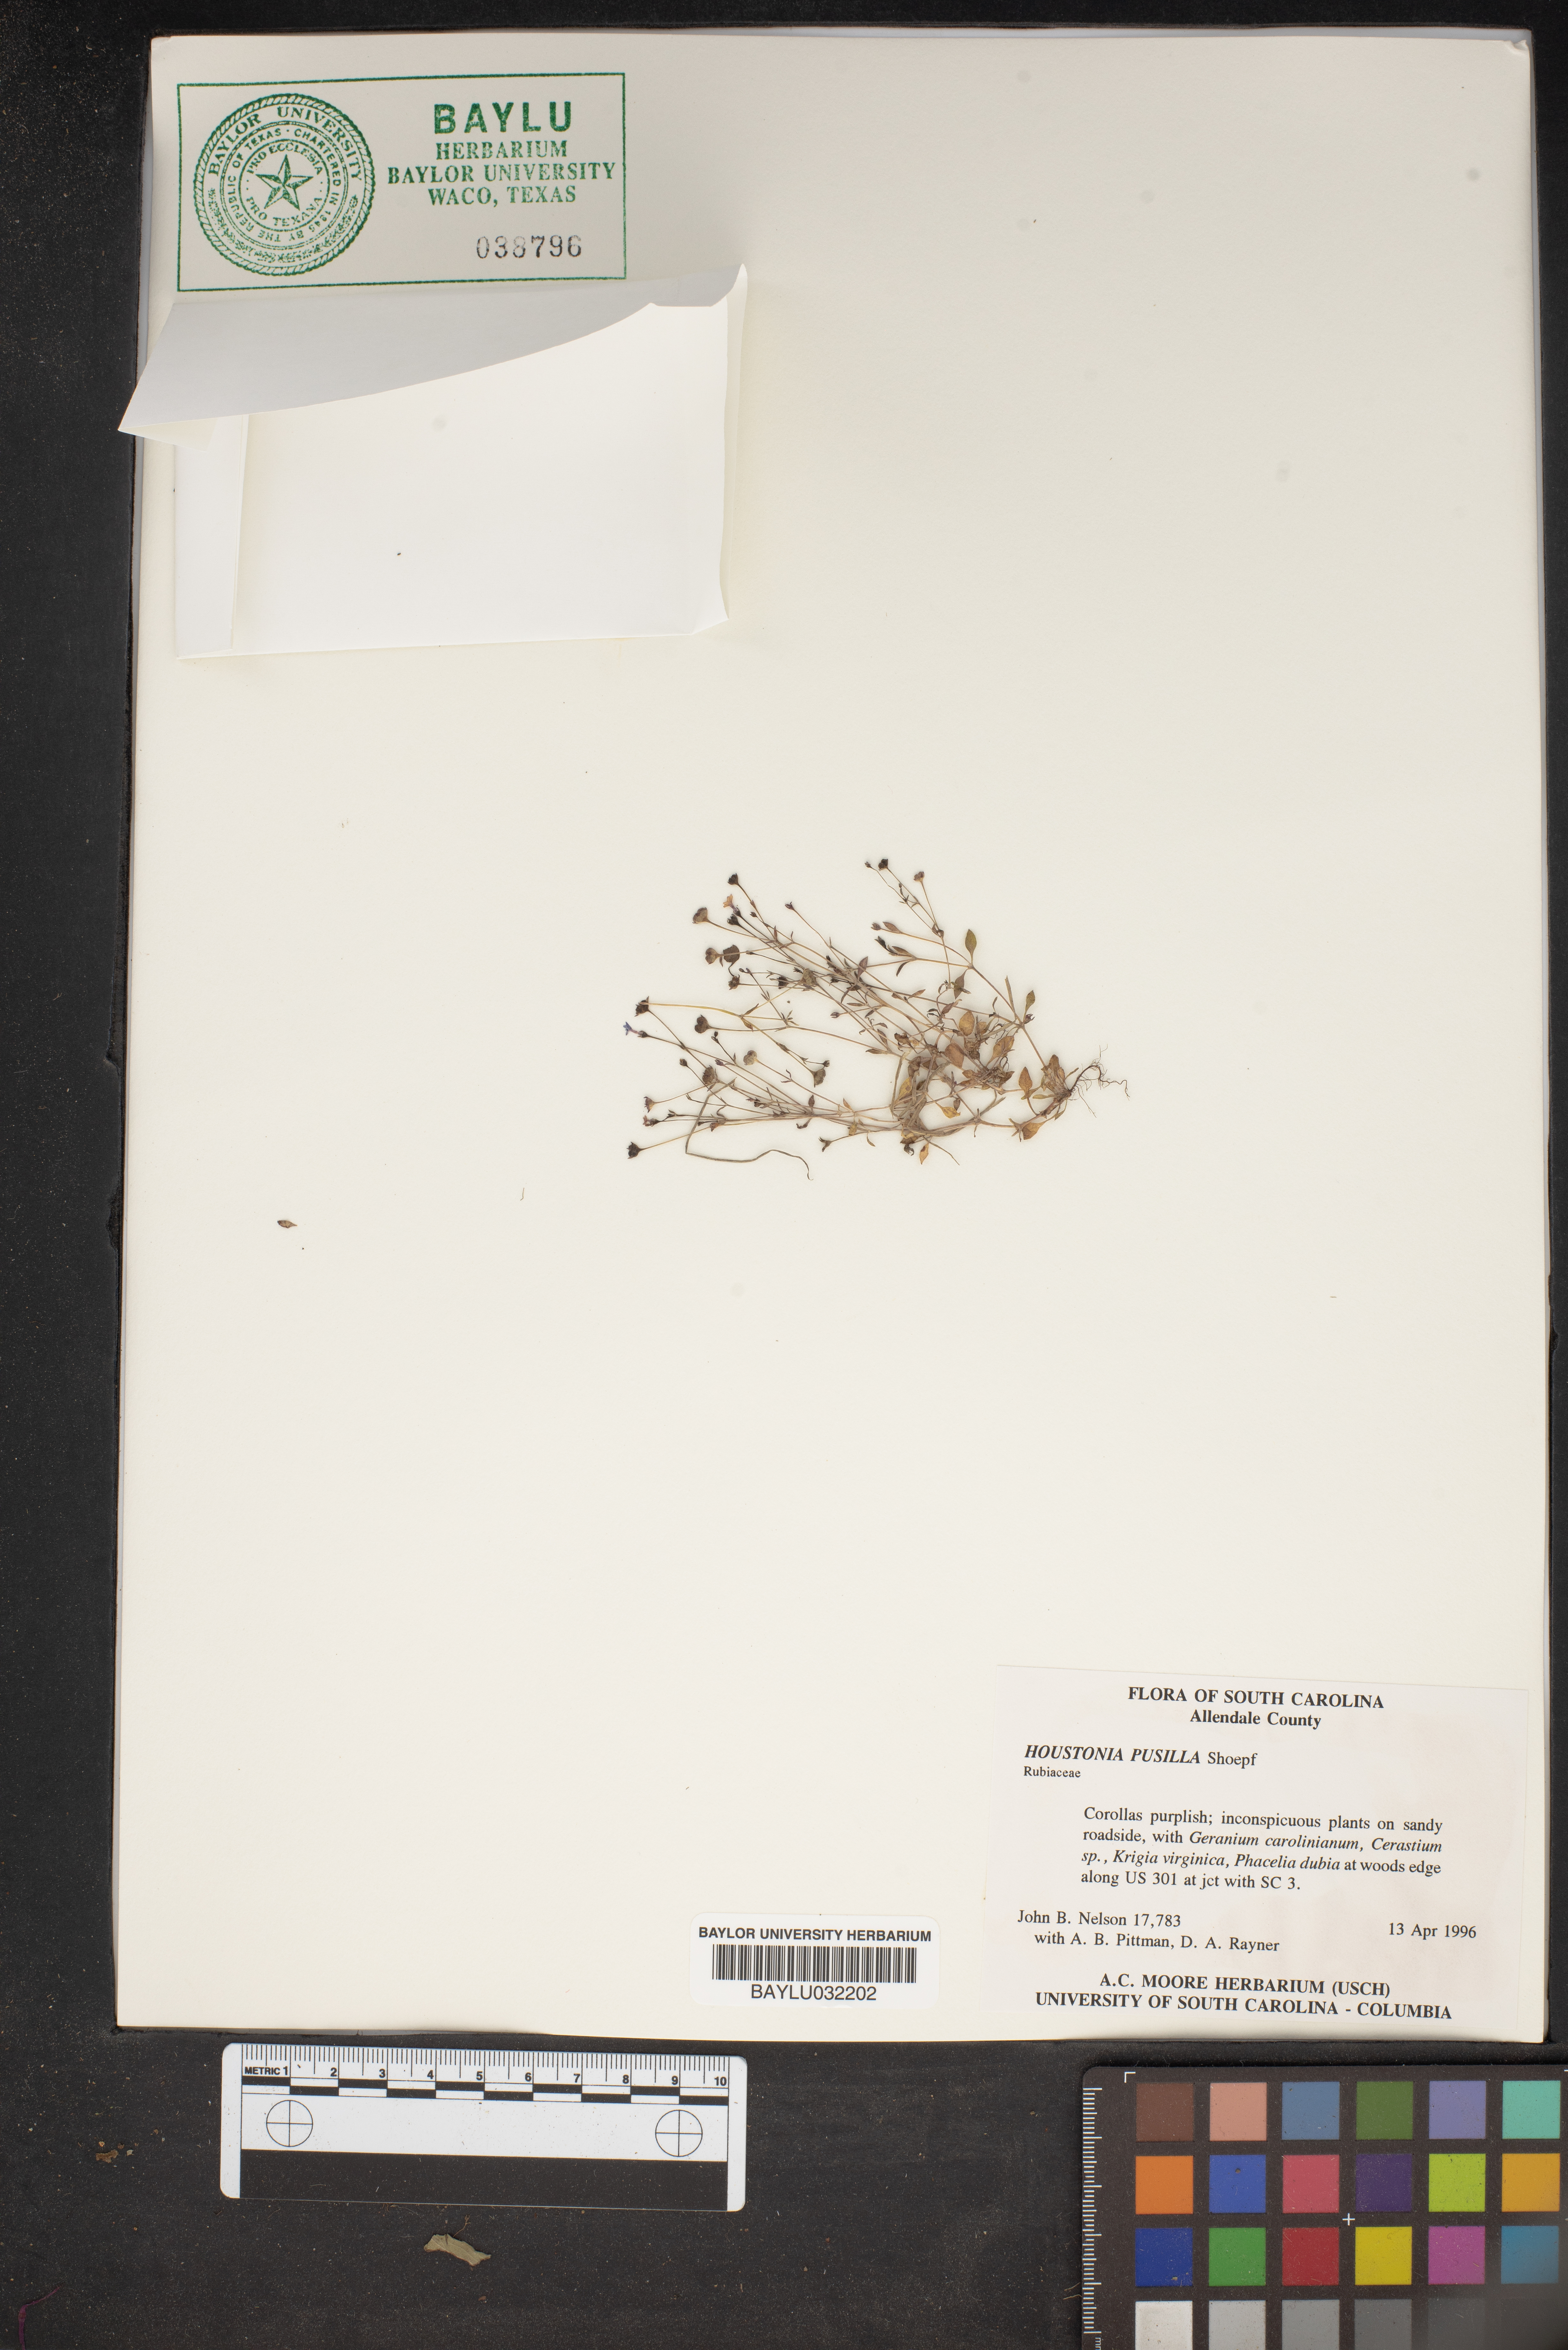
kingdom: Plantae
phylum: Tracheophyta
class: Magnoliopsida
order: Gentianales
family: Rubiaceae
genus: Houstonia
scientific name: Houstonia pusilla
